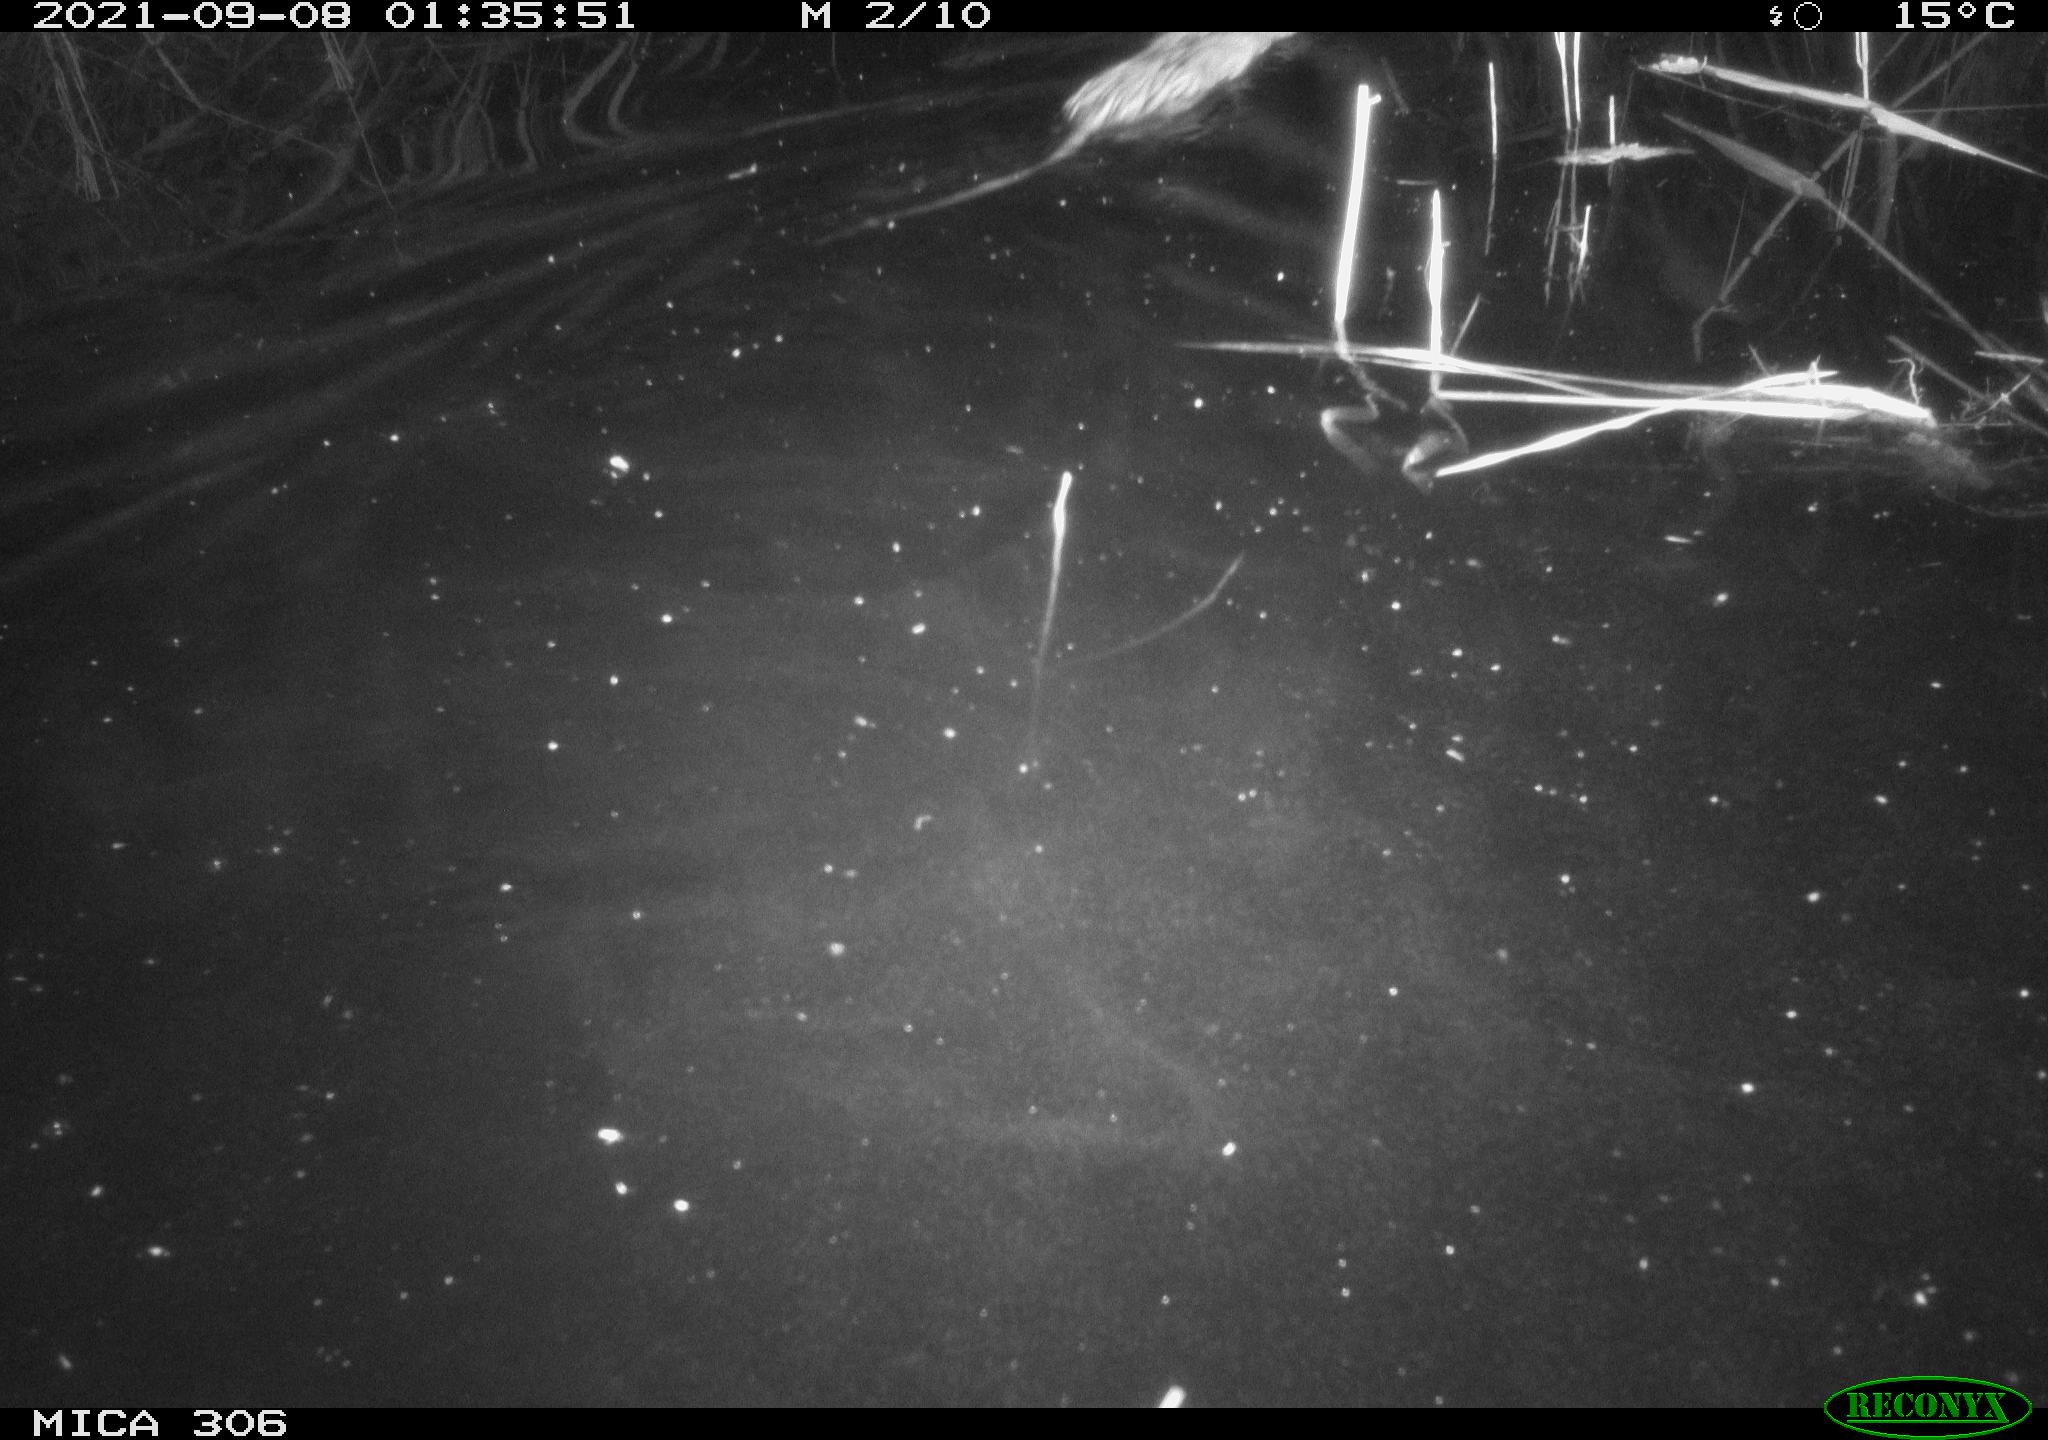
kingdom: Animalia
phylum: Chordata
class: Mammalia
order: Rodentia
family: Cricetidae
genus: Ondatra
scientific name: Ondatra zibethicus
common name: Muskrat
